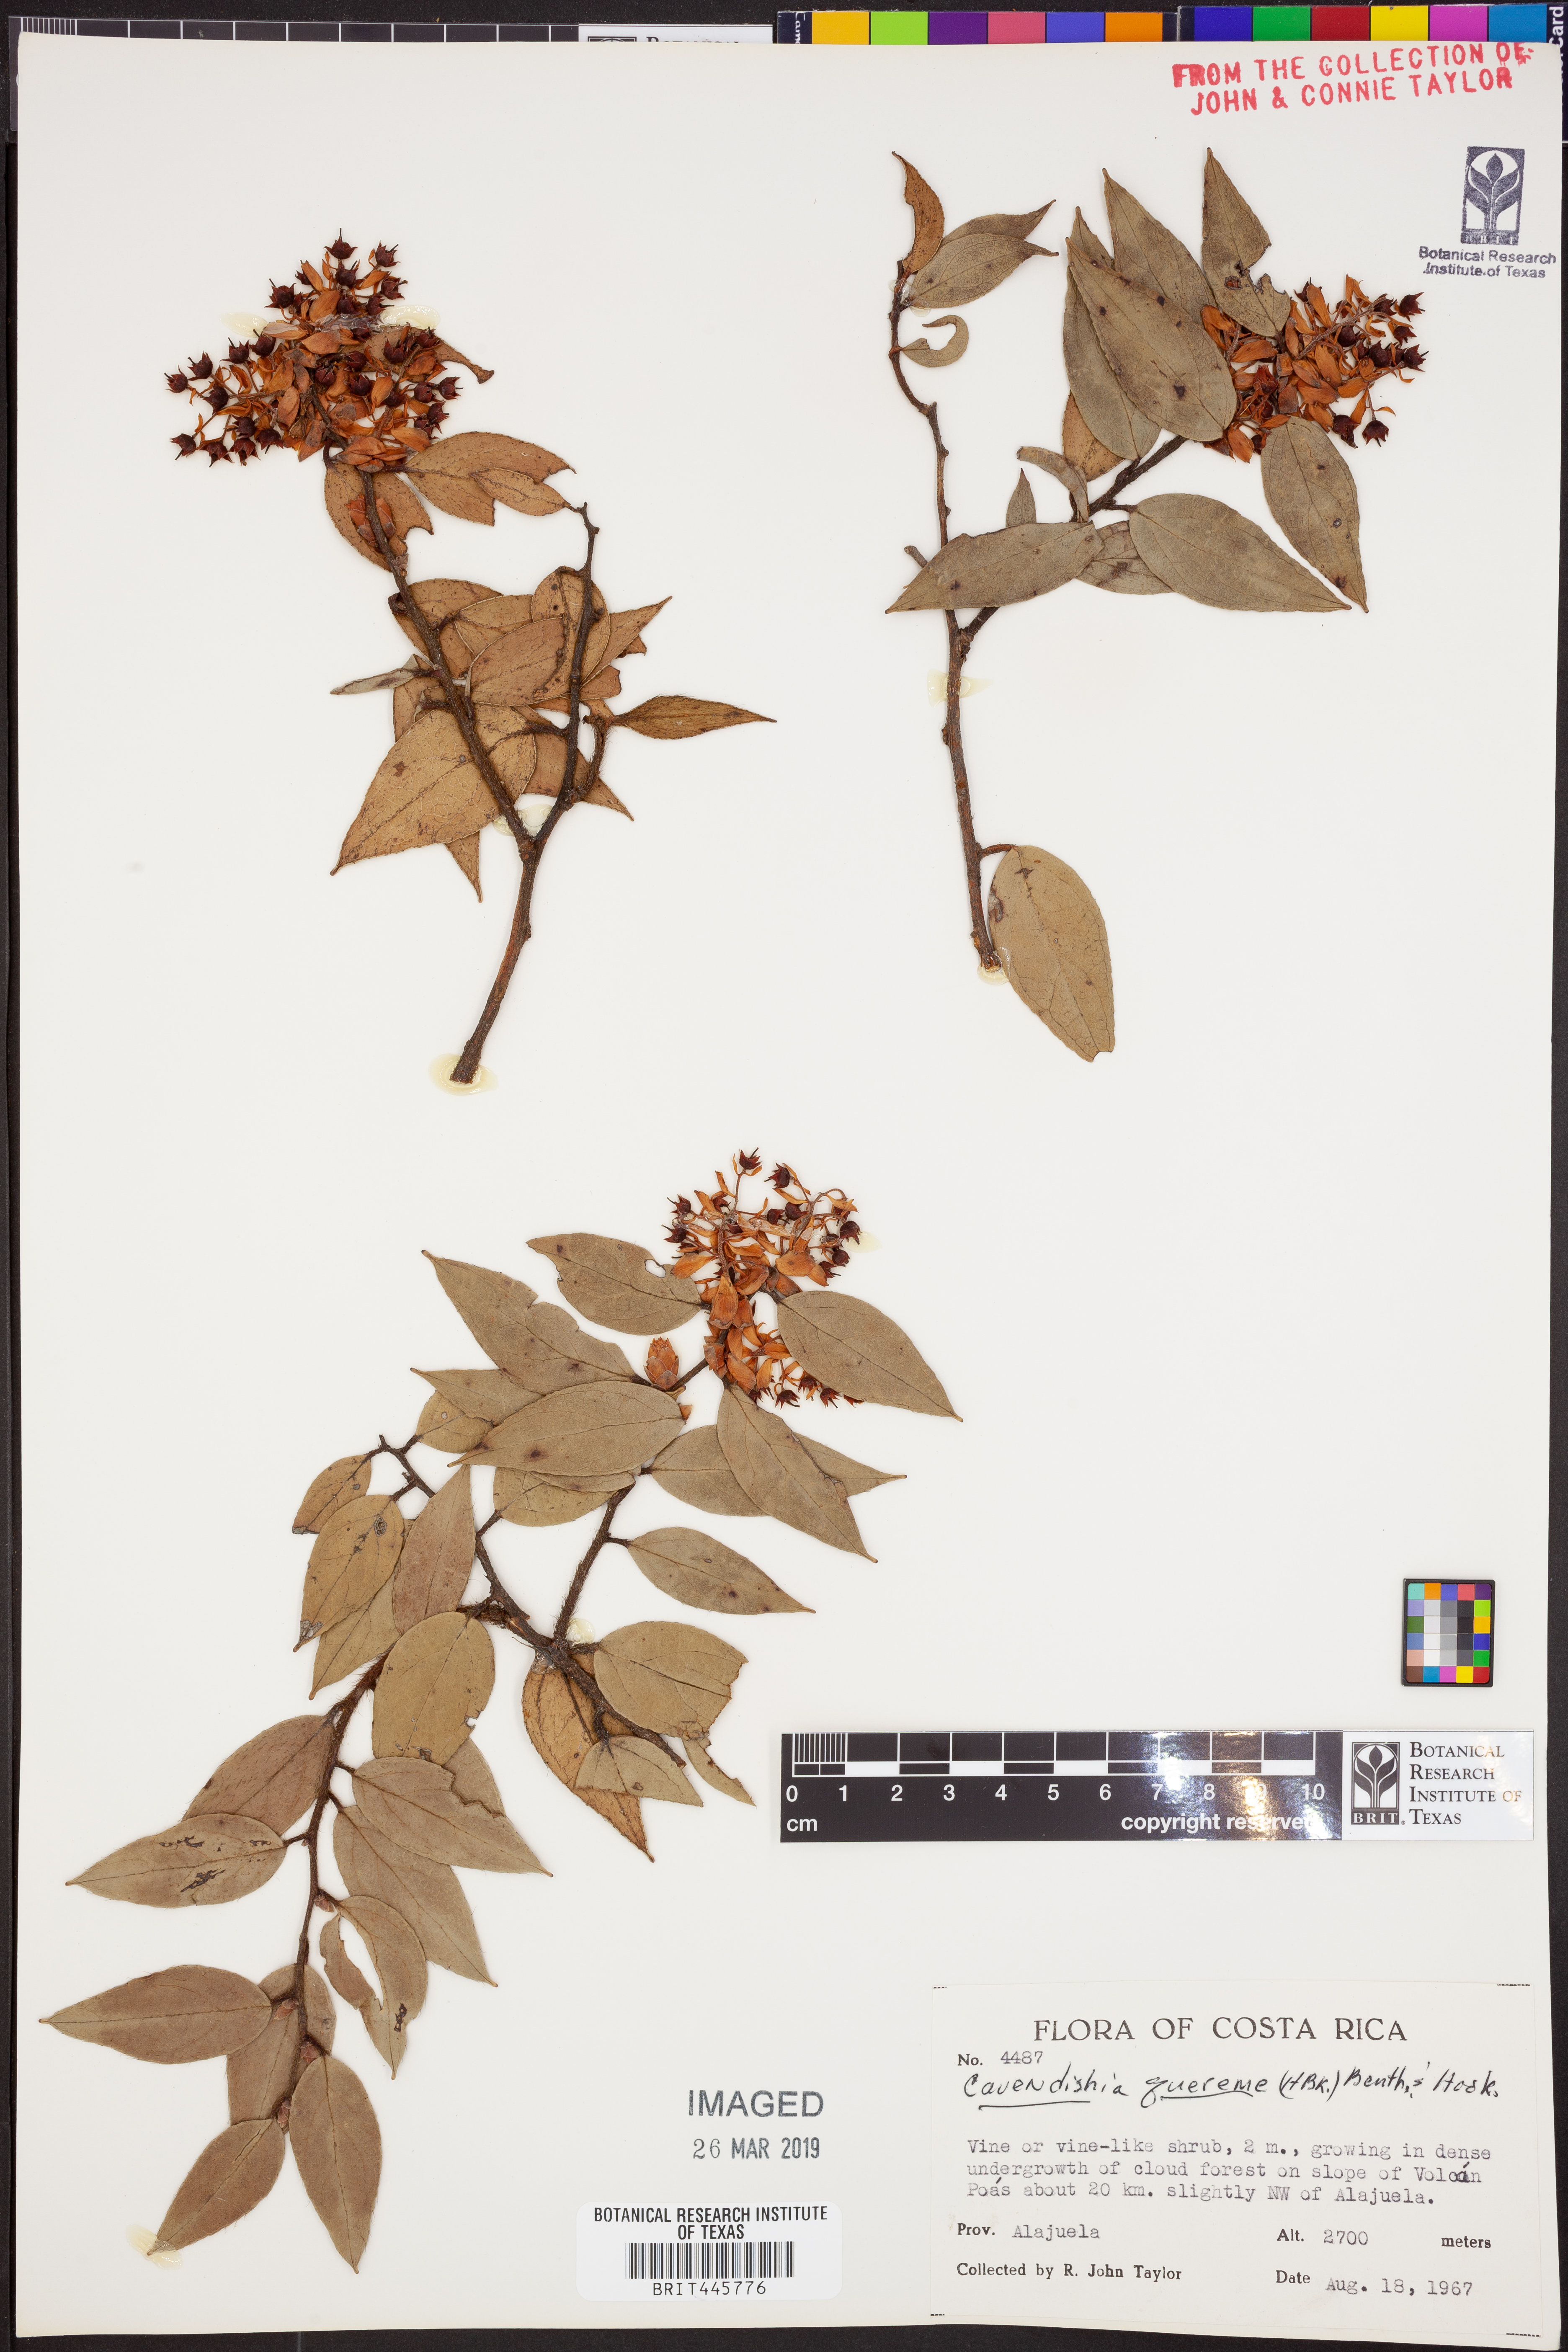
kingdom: Plantae
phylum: Tracheophyta
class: Magnoliopsida
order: Ericales
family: Ericaceae
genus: Cavendishia
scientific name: Cavendishia quereme
